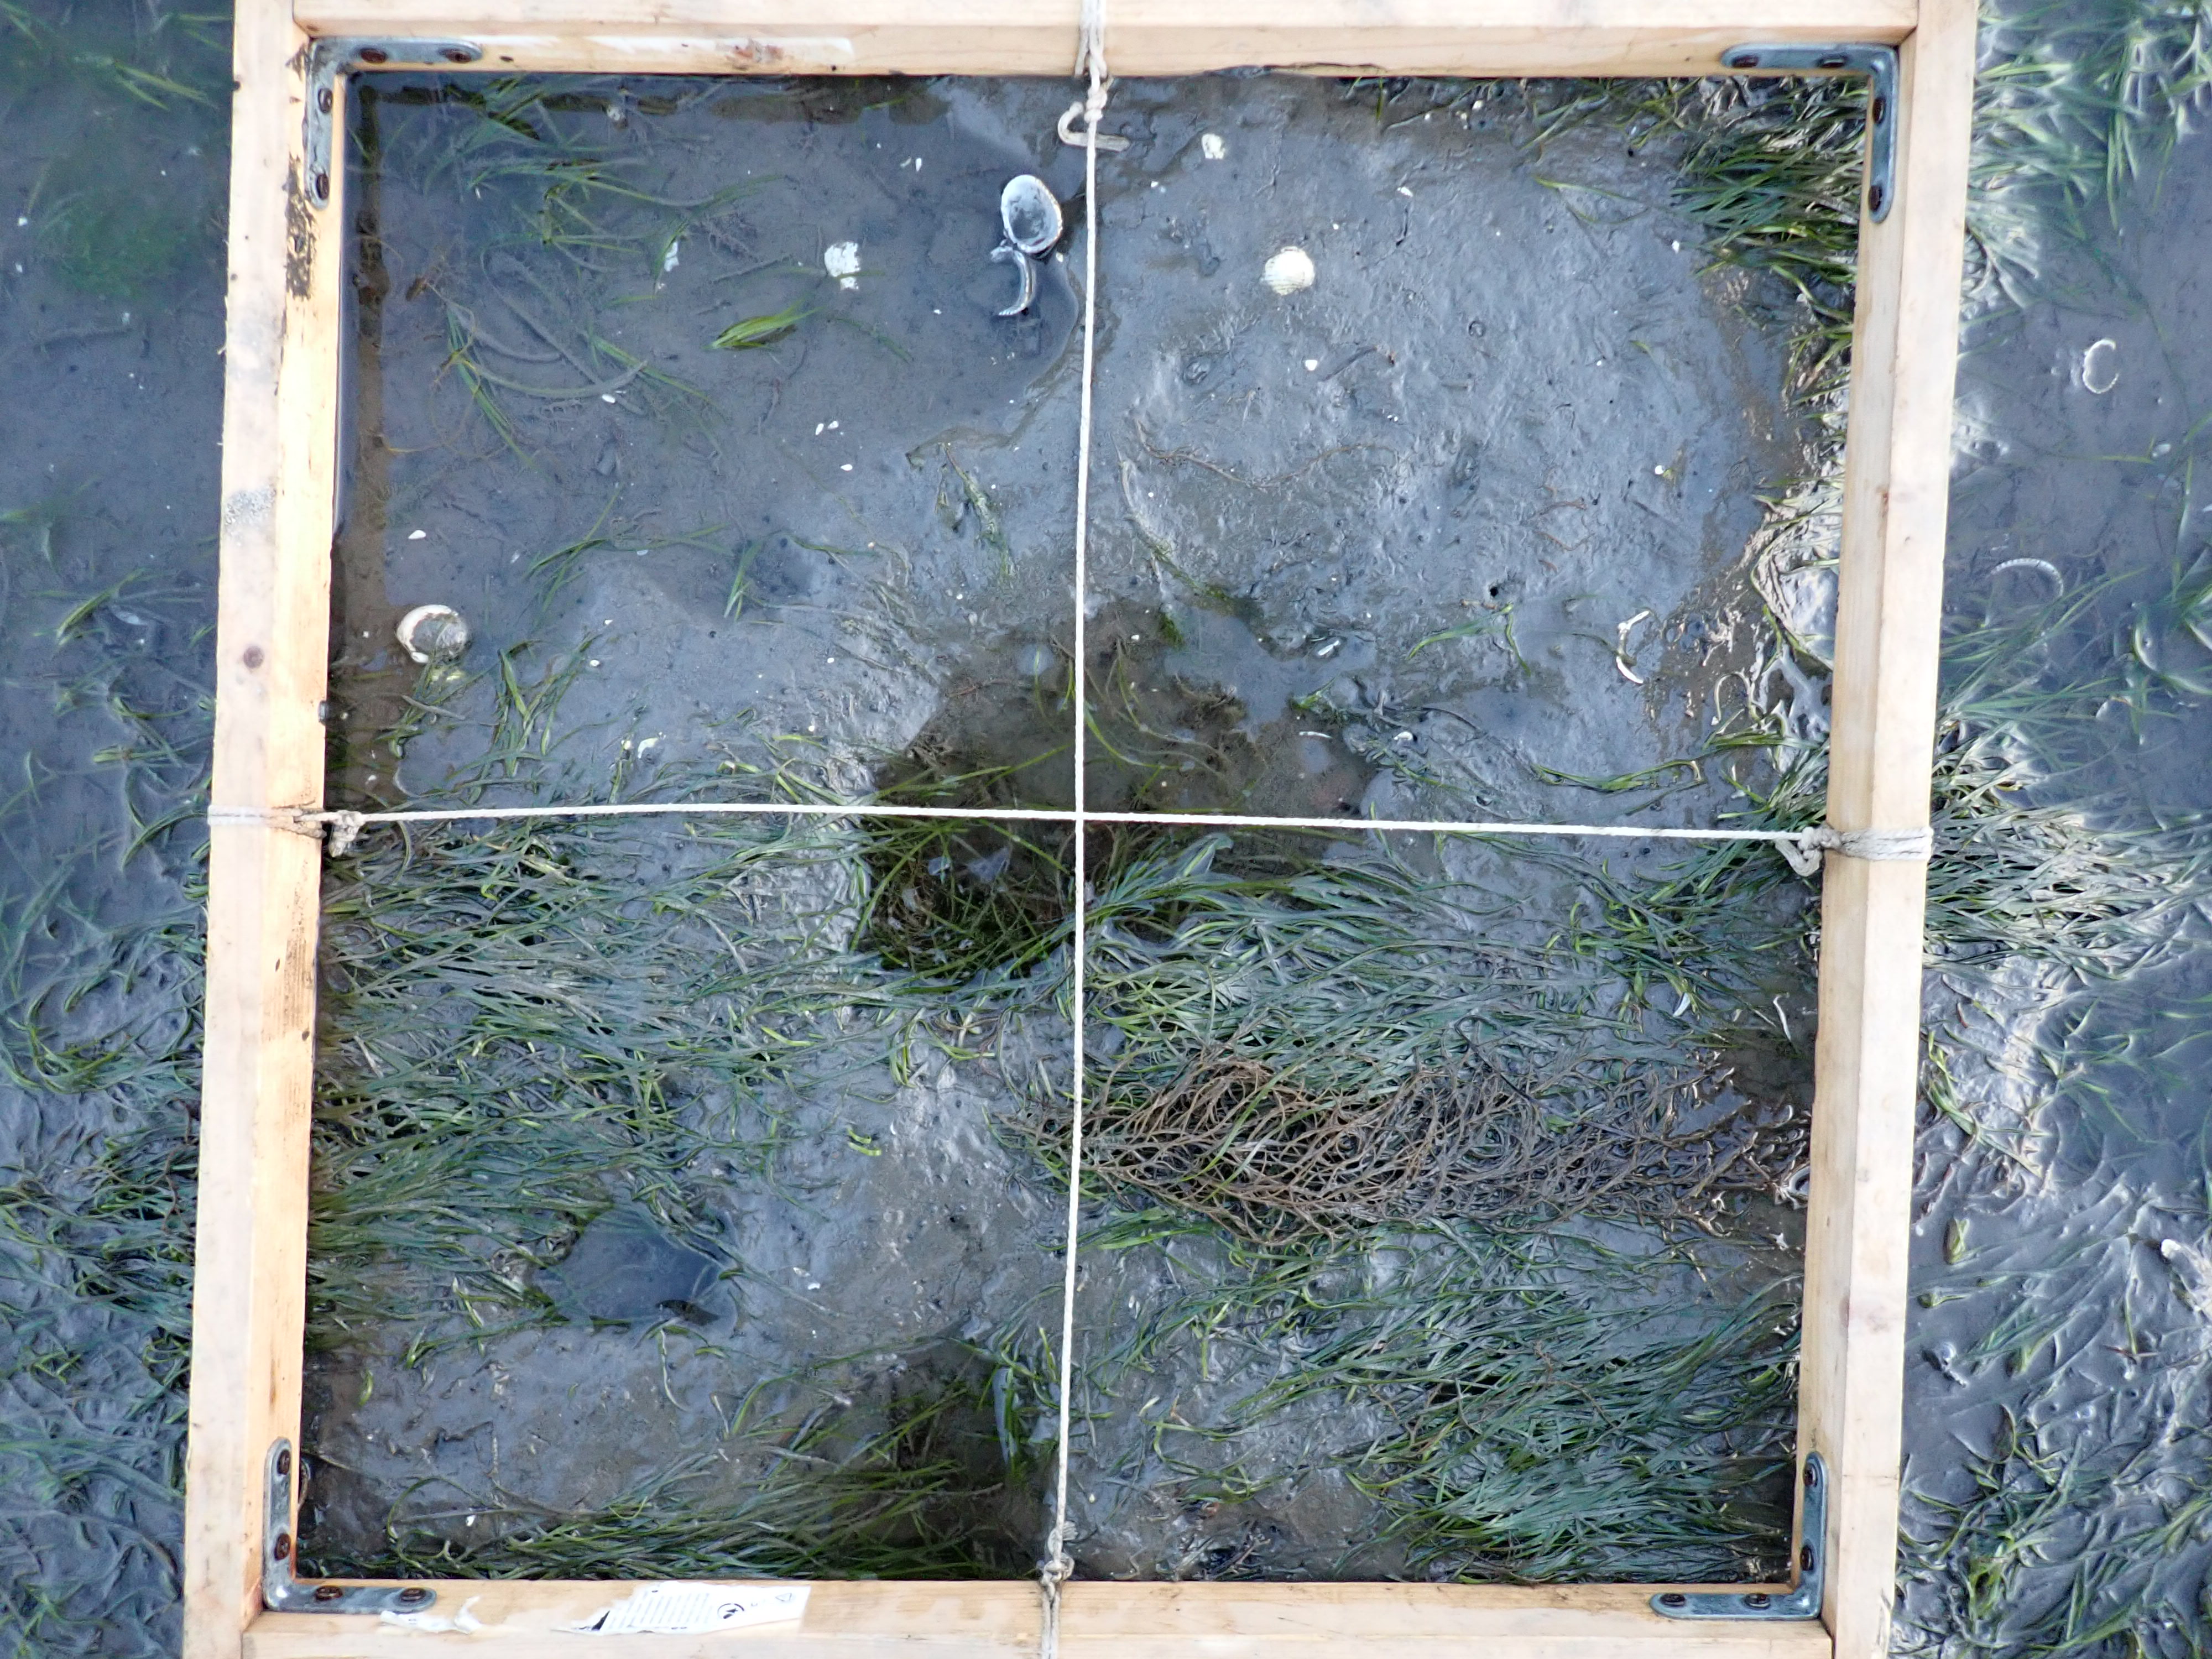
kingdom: Plantae
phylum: Tracheophyta
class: Liliopsida
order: Alismatales
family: Zosteraceae
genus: Zostera
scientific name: Zostera noltii
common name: Dwarf eelgrass
